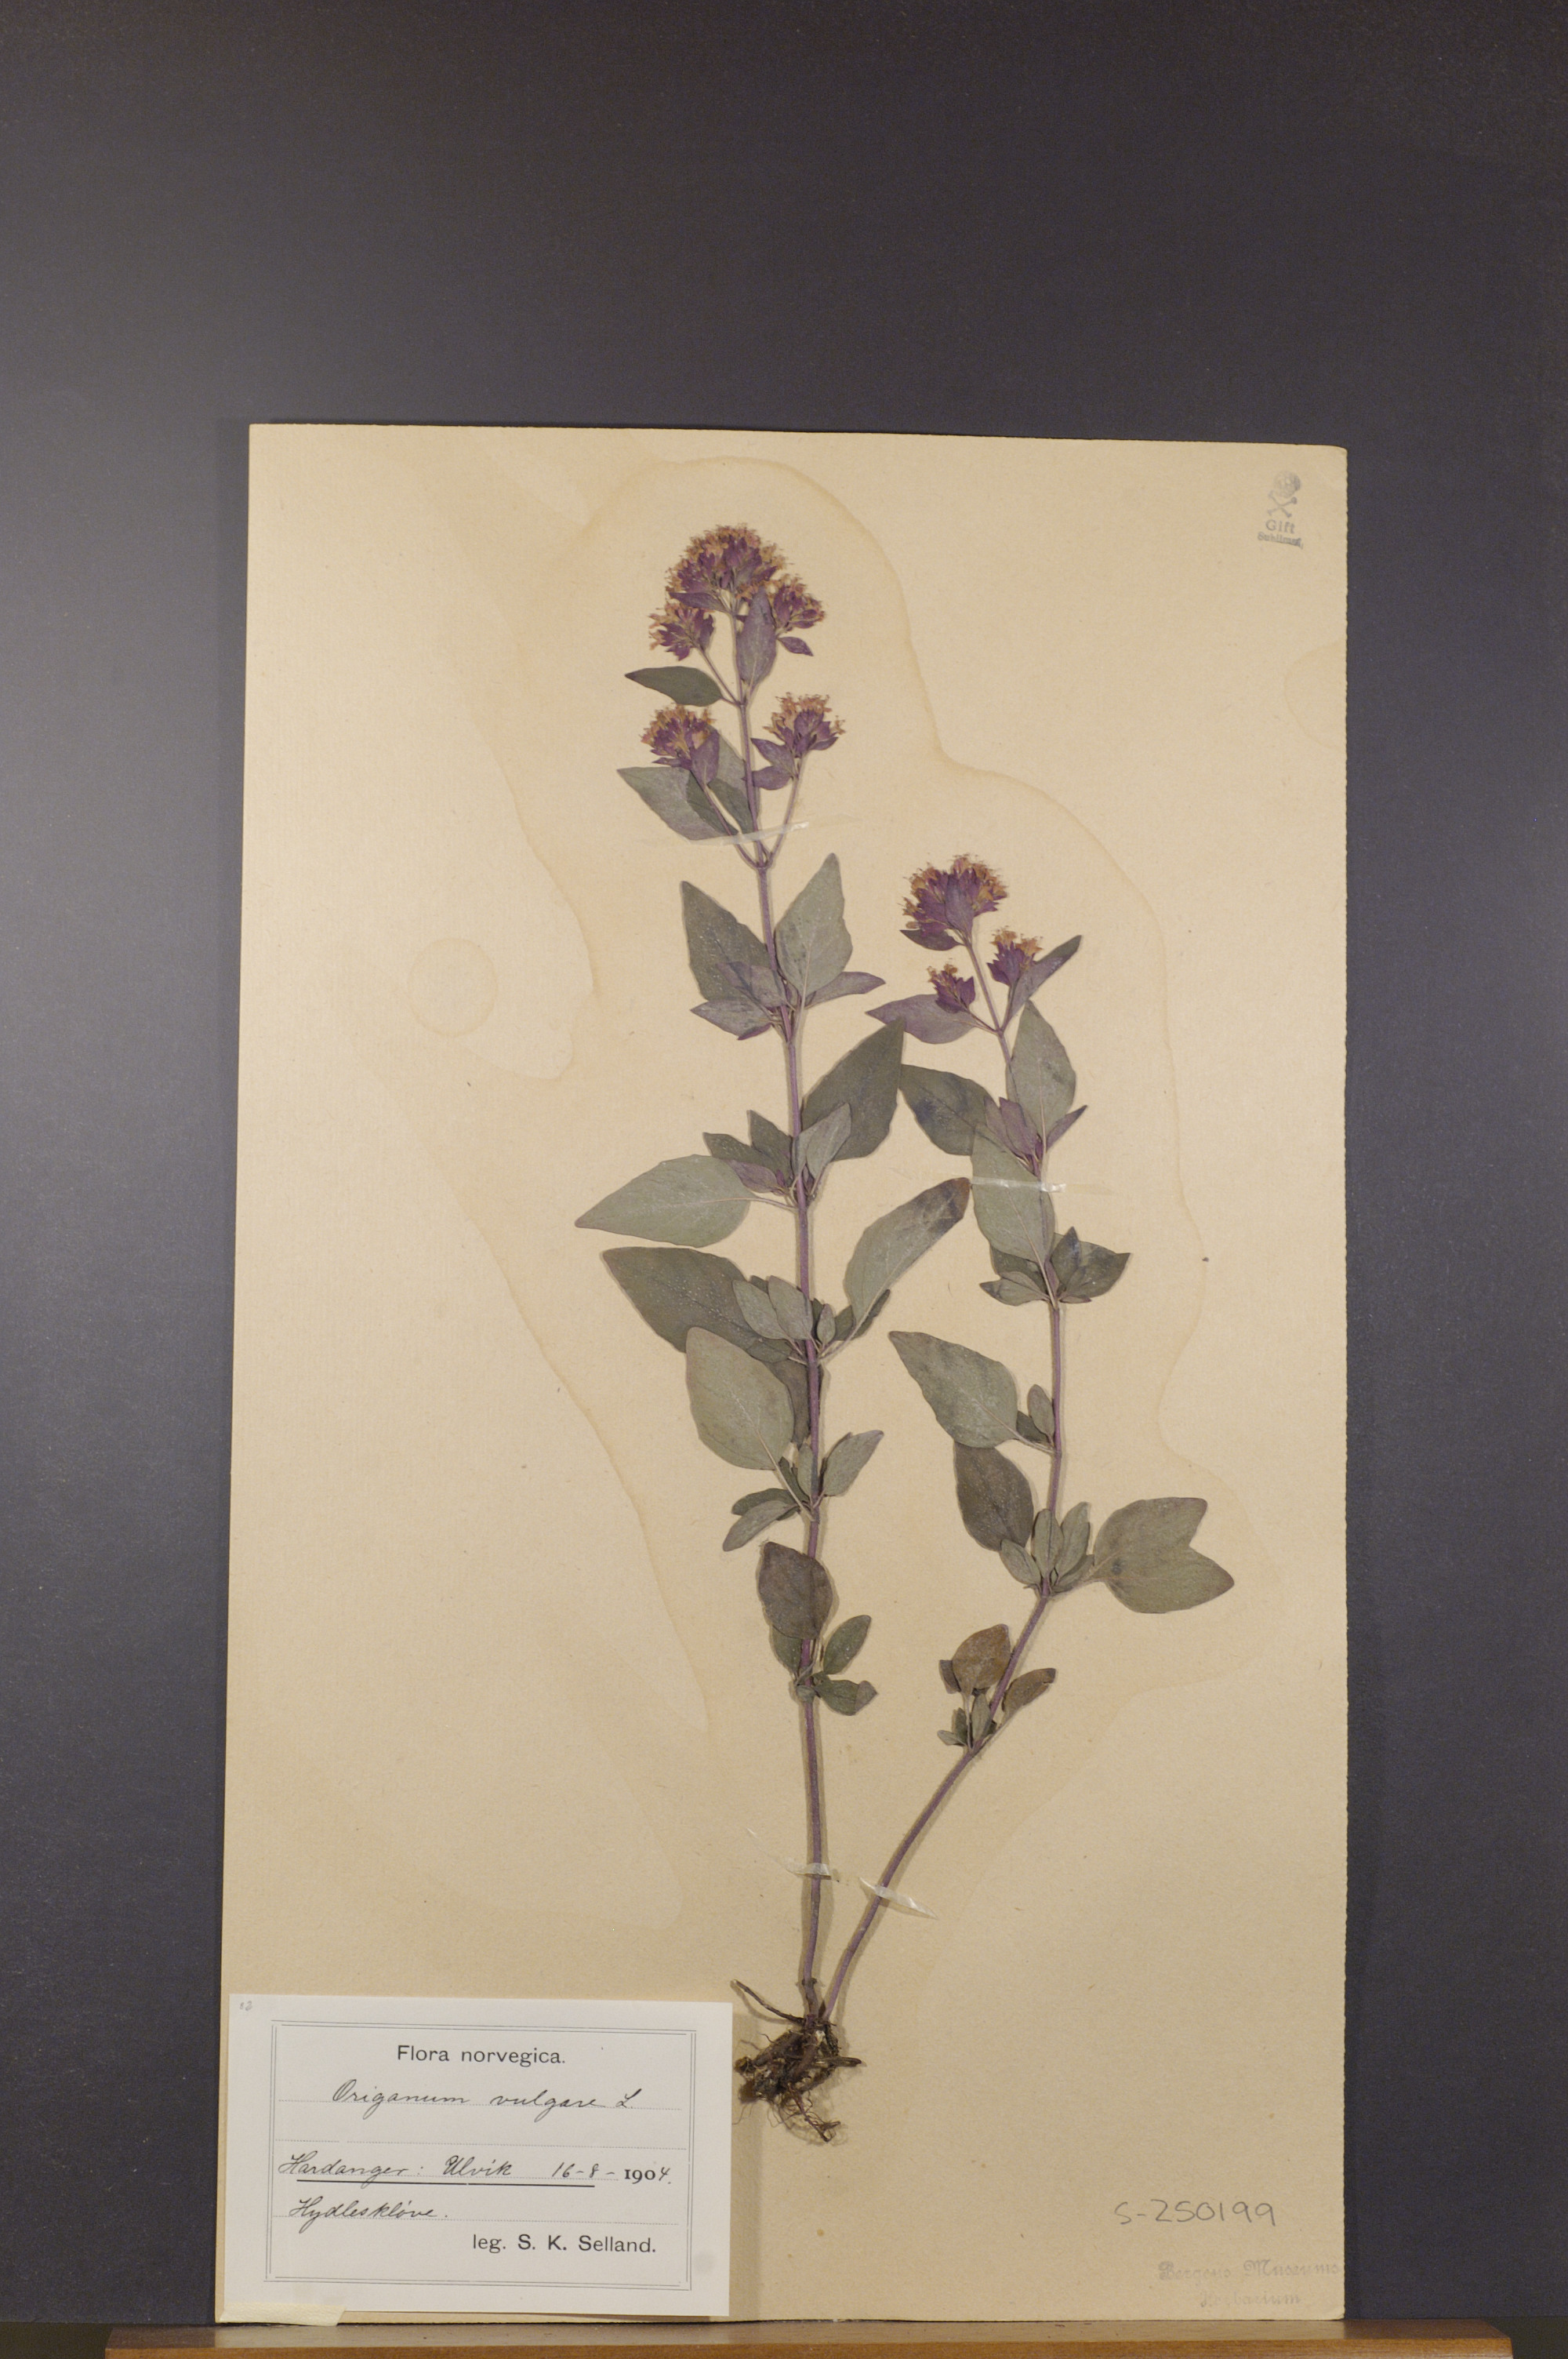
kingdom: Plantae
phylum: Tracheophyta
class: Magnoliopsida
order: Lamiales
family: Lamiaceae
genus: Origanum
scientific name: Origanum vulgare
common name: Wild marjoram
